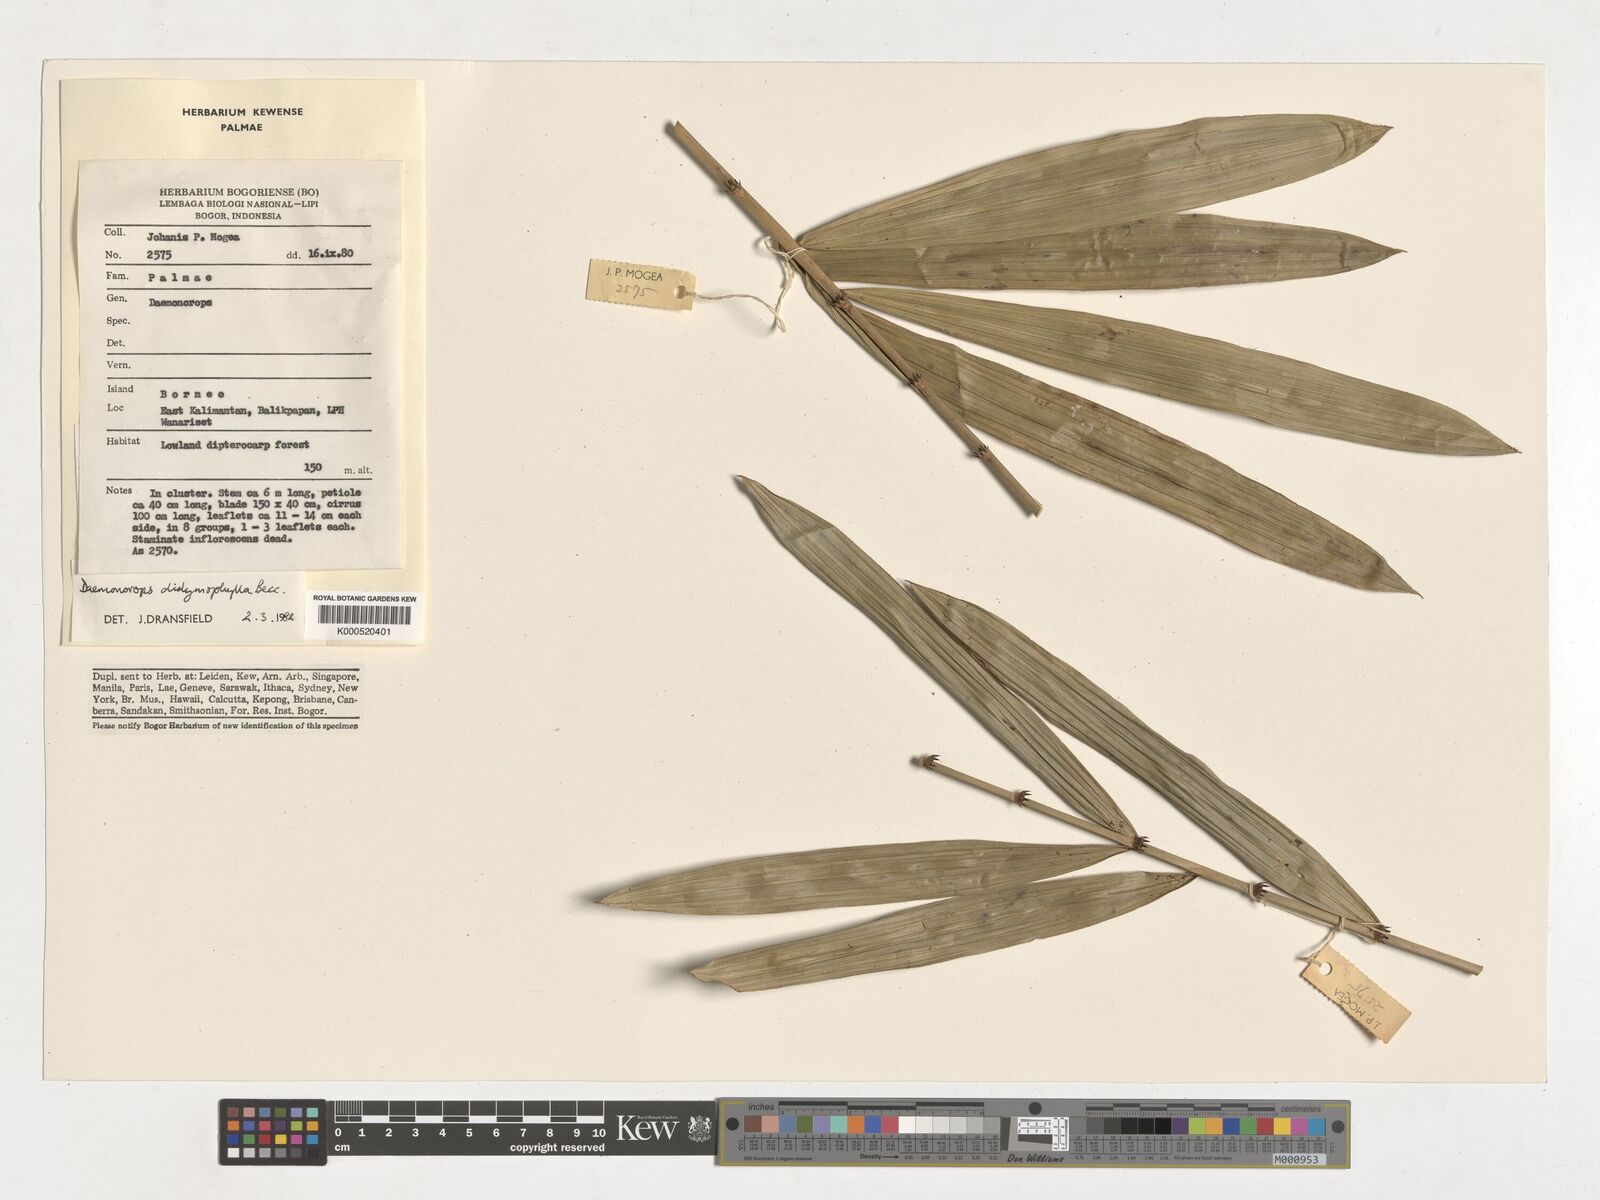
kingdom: Plantae
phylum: Tracheophyta
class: Liliopsida
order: Arecales
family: Arecaceae
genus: Calamus
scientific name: Calamus gracilipes
